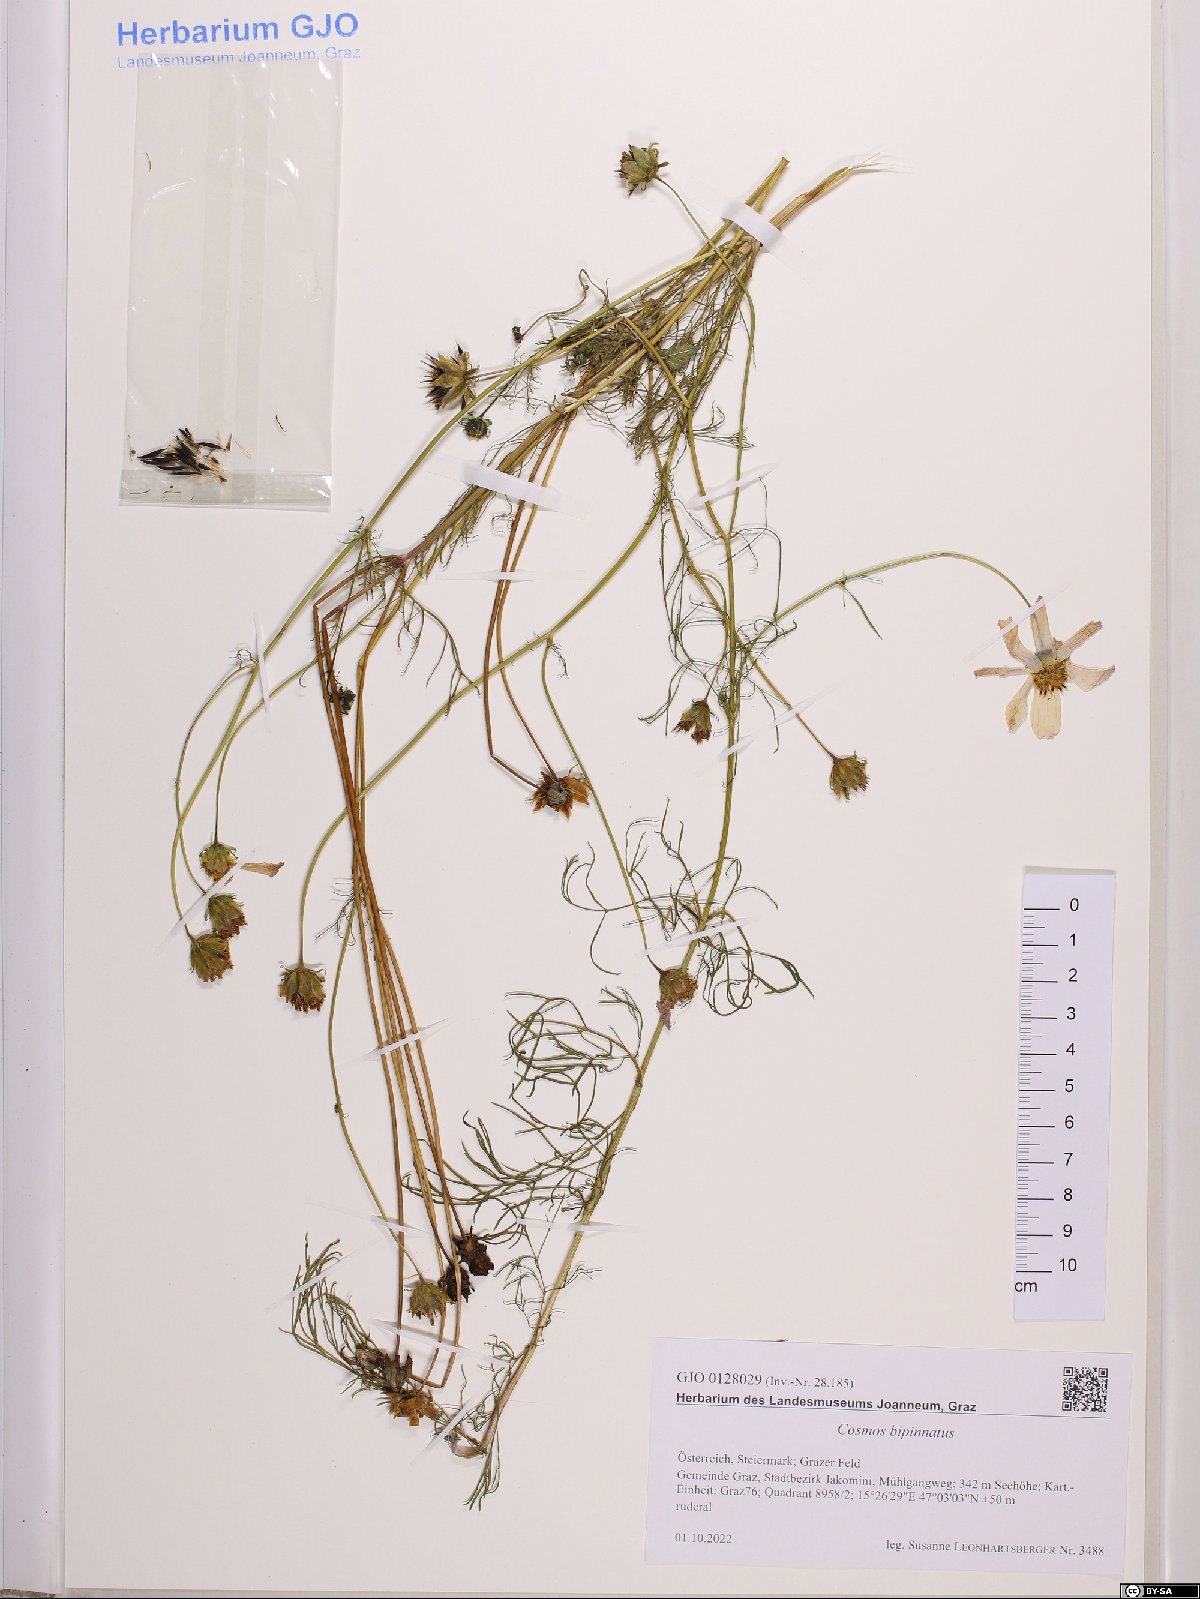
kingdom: Plantae
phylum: Tracheophyta
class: Magnoliopsida
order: Asterales
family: Asteraceae
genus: Cosmos
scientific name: Cosmos bipinnatus
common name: Garden cosmos
